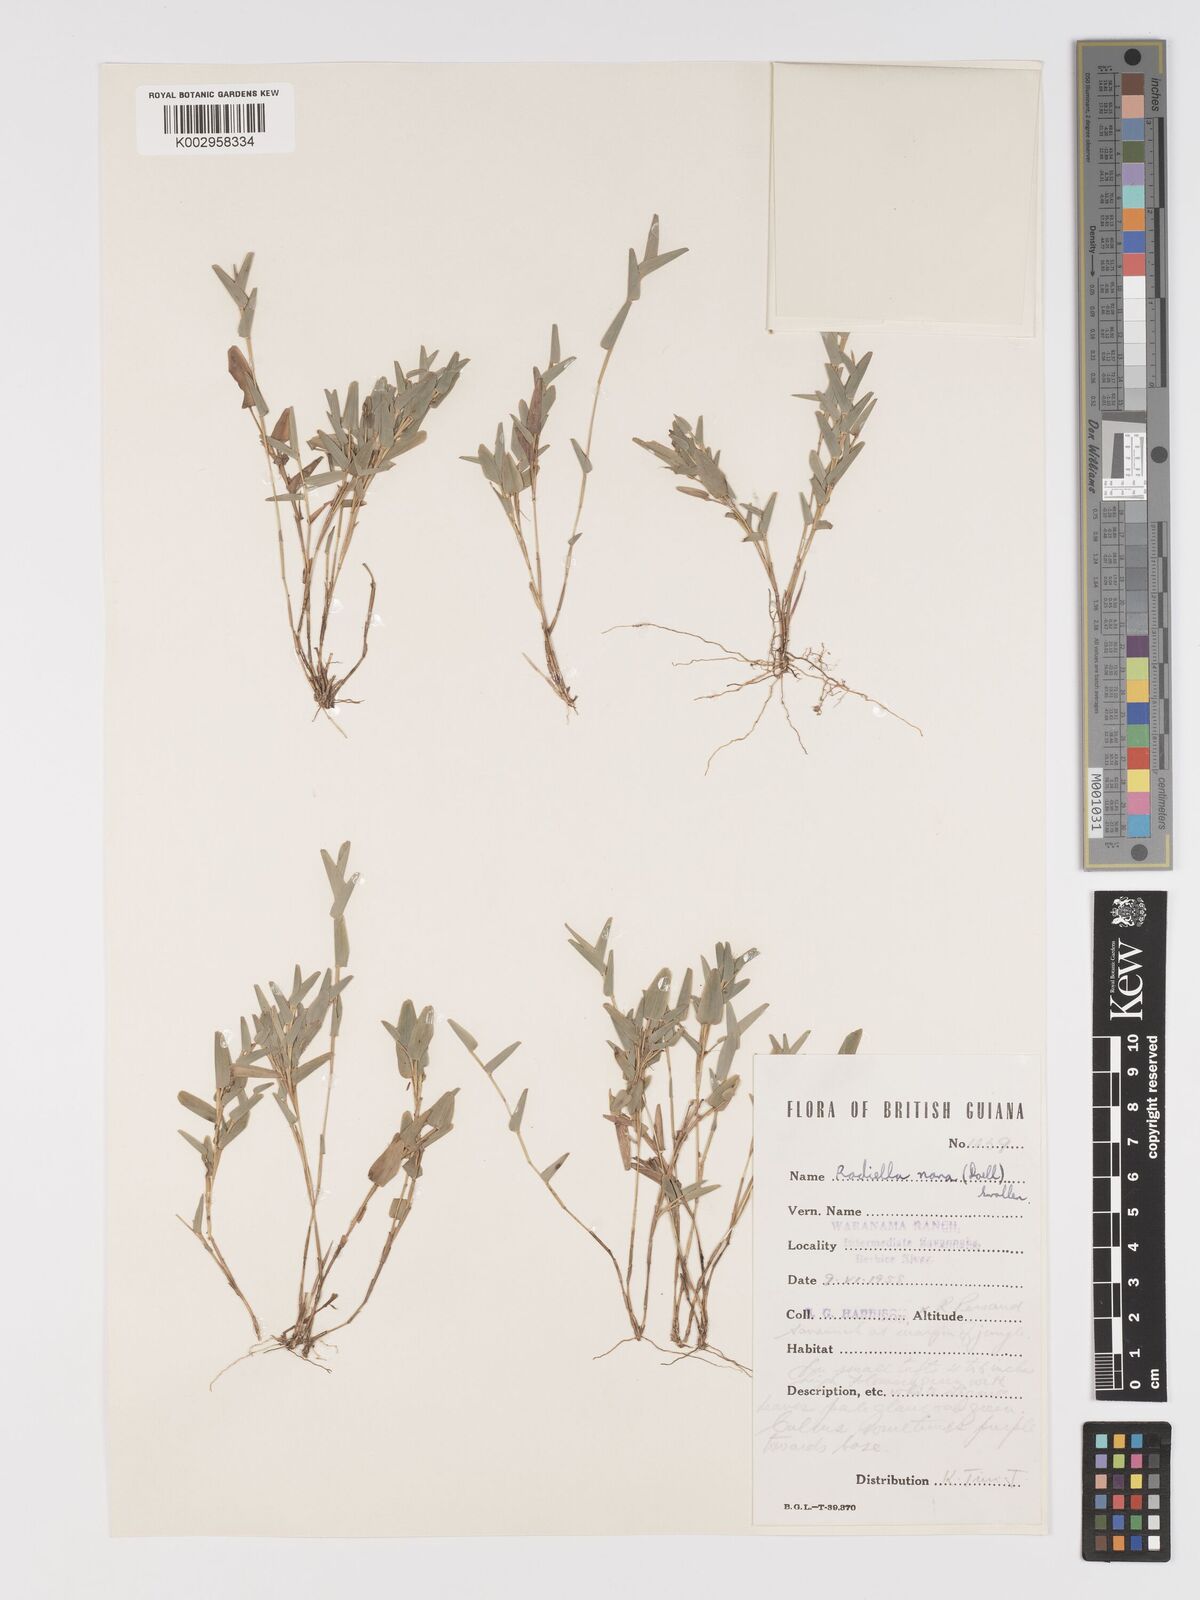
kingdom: Plantae
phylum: Tracheophyta
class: Liliopsida
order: Poales
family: Poaceae
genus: Raddiella
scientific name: Raddiella esenbeckii
